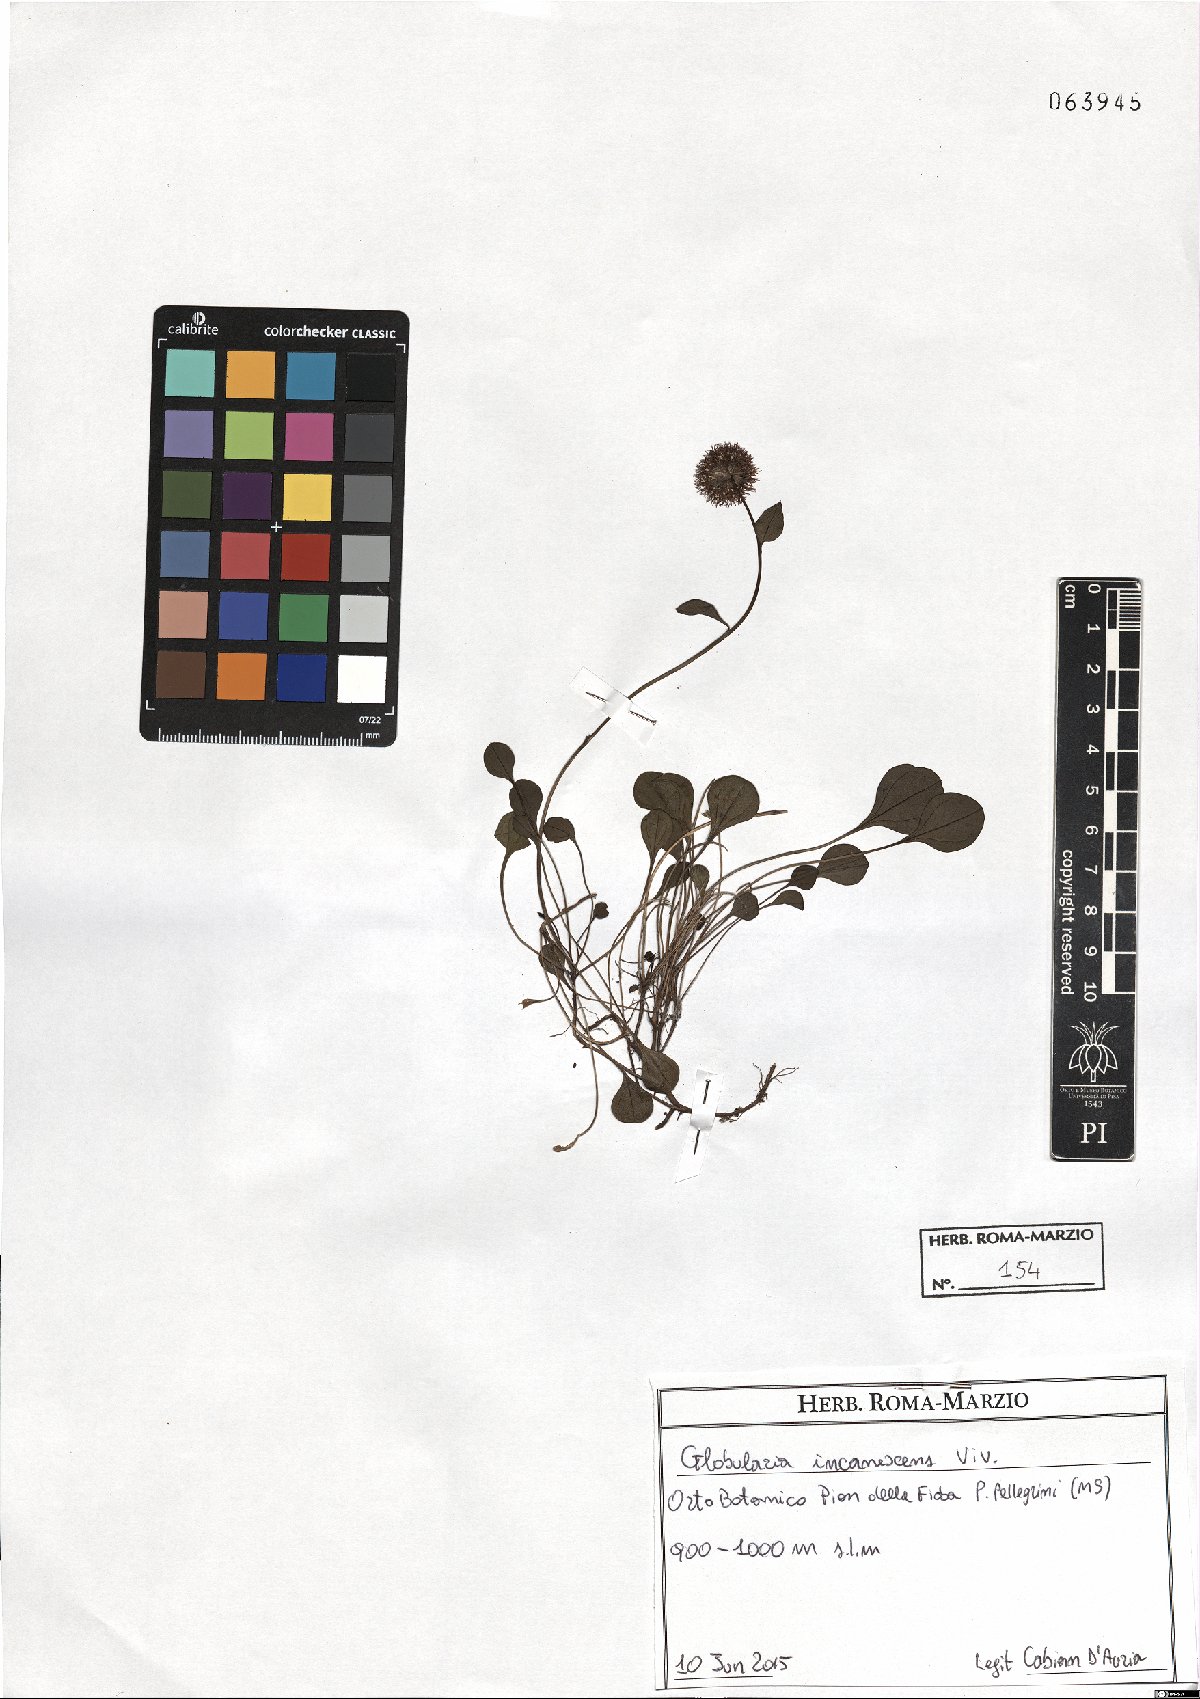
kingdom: Plantae
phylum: Tracheophyta
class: Magnoliopsida
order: Lamiales
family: Plantaginaceae
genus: Globularia
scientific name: Globularia incanescens
